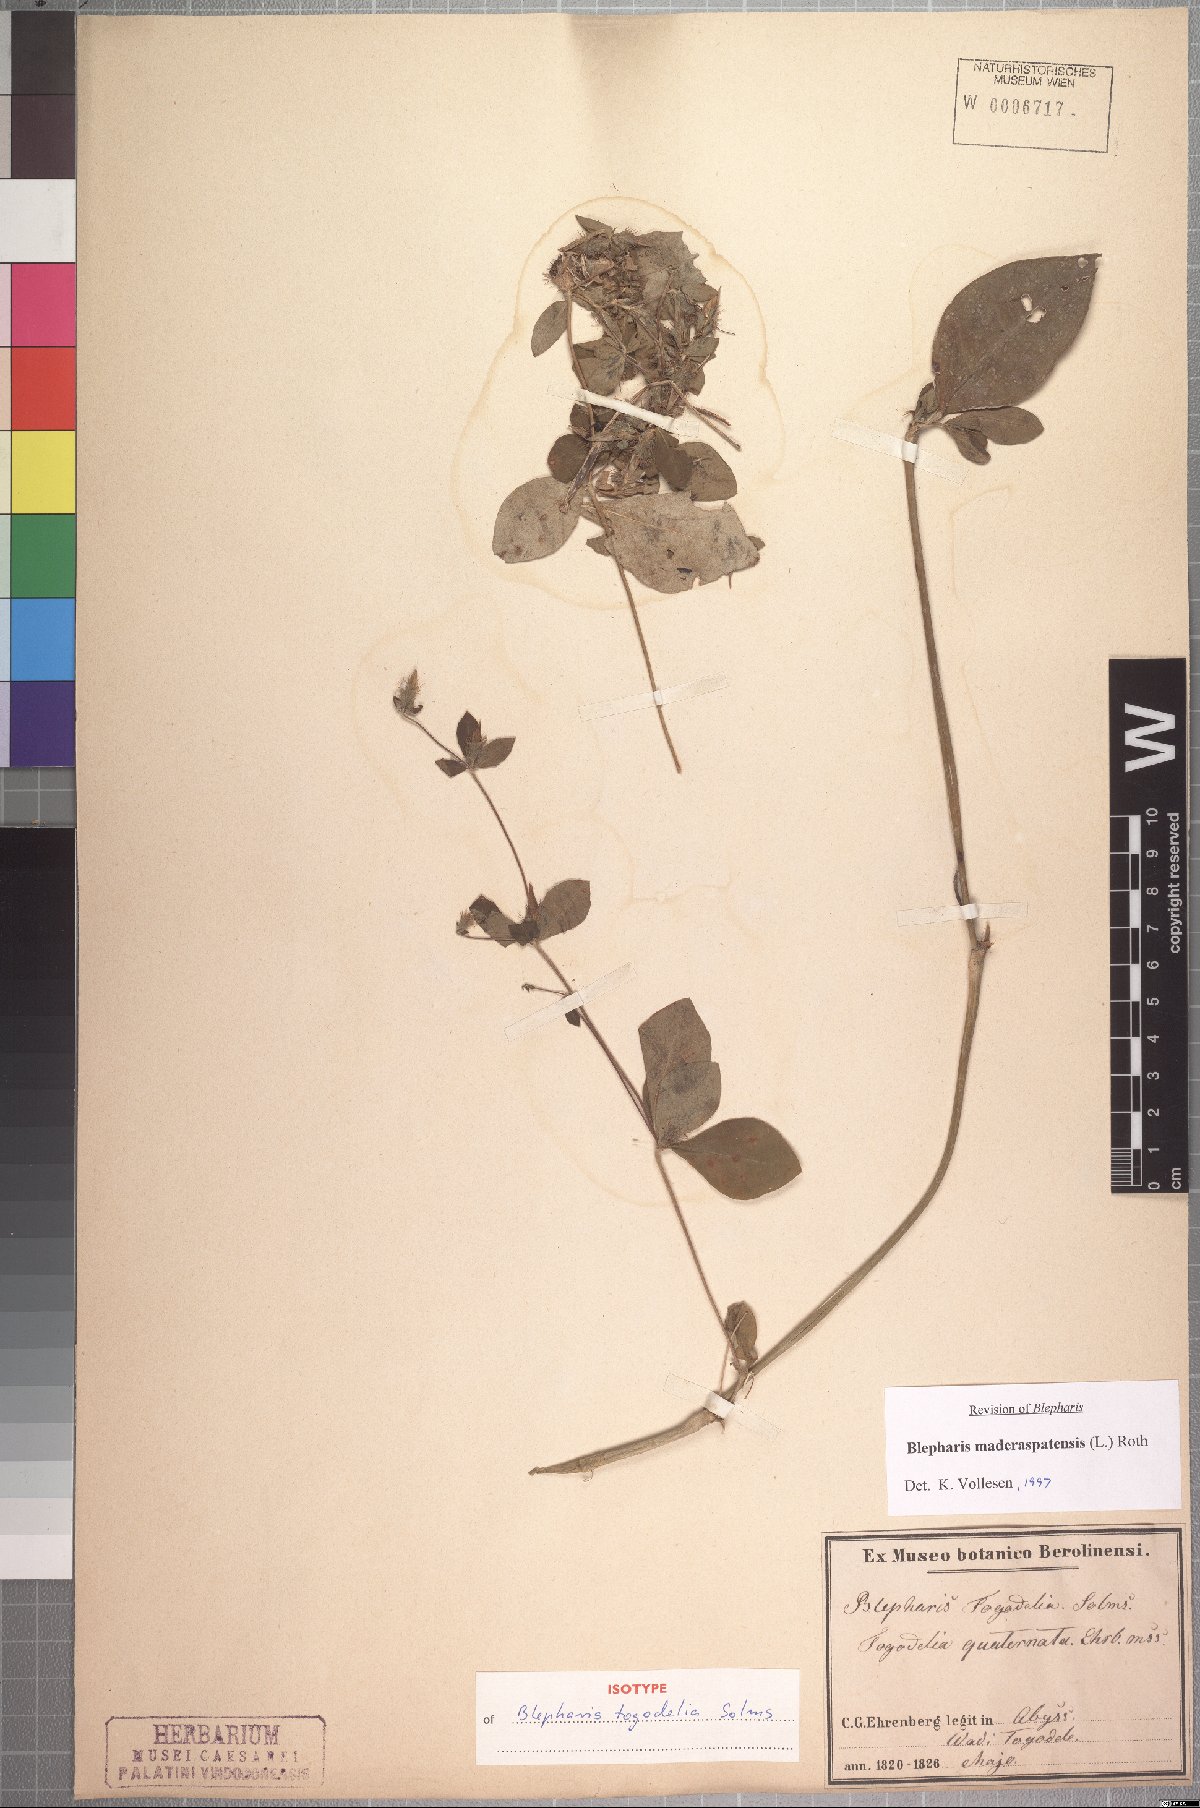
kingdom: Plantae
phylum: Tracheophyta
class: Magnoliopsida
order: Lamiales
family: Acanthaceae
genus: Blepharis
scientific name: Blepharis maderaspatensis
